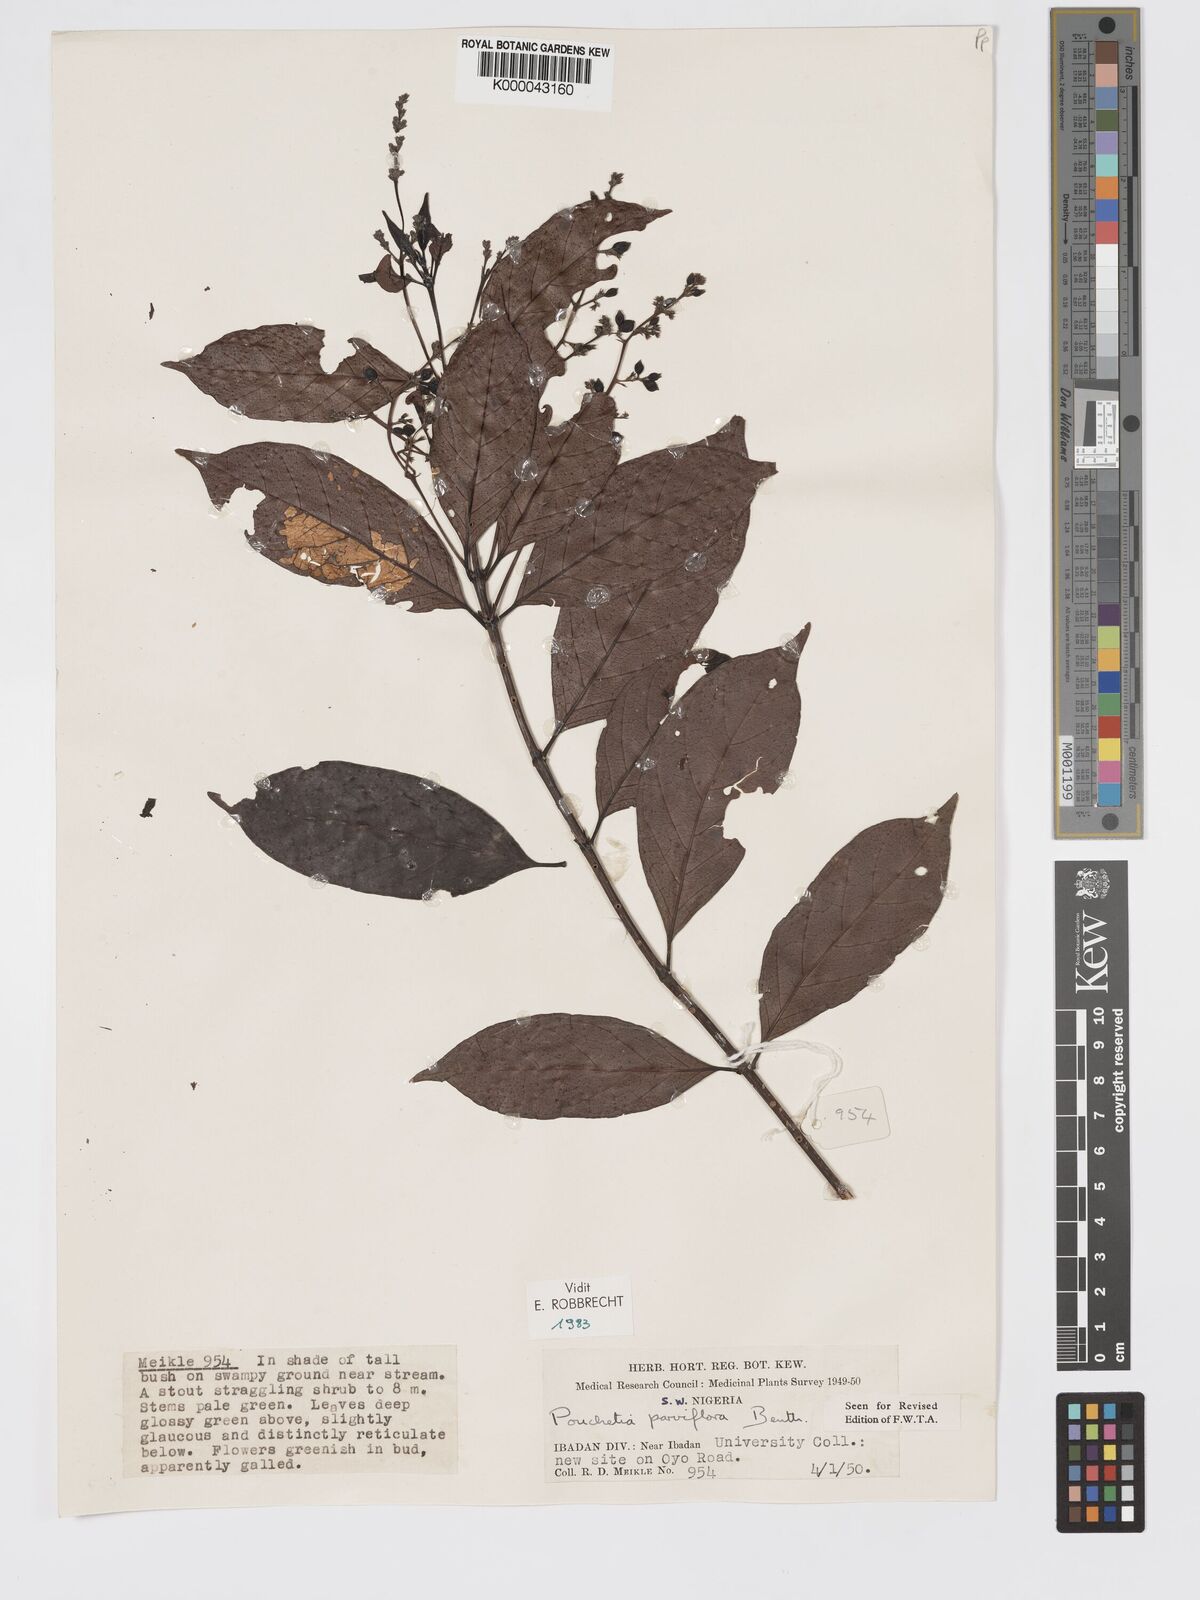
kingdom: Plantae
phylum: Tracheophyta
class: Magnoliopsida
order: Gentianales
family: Rubiaceae
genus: Pouchetia
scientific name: Pouchetia parviflora
